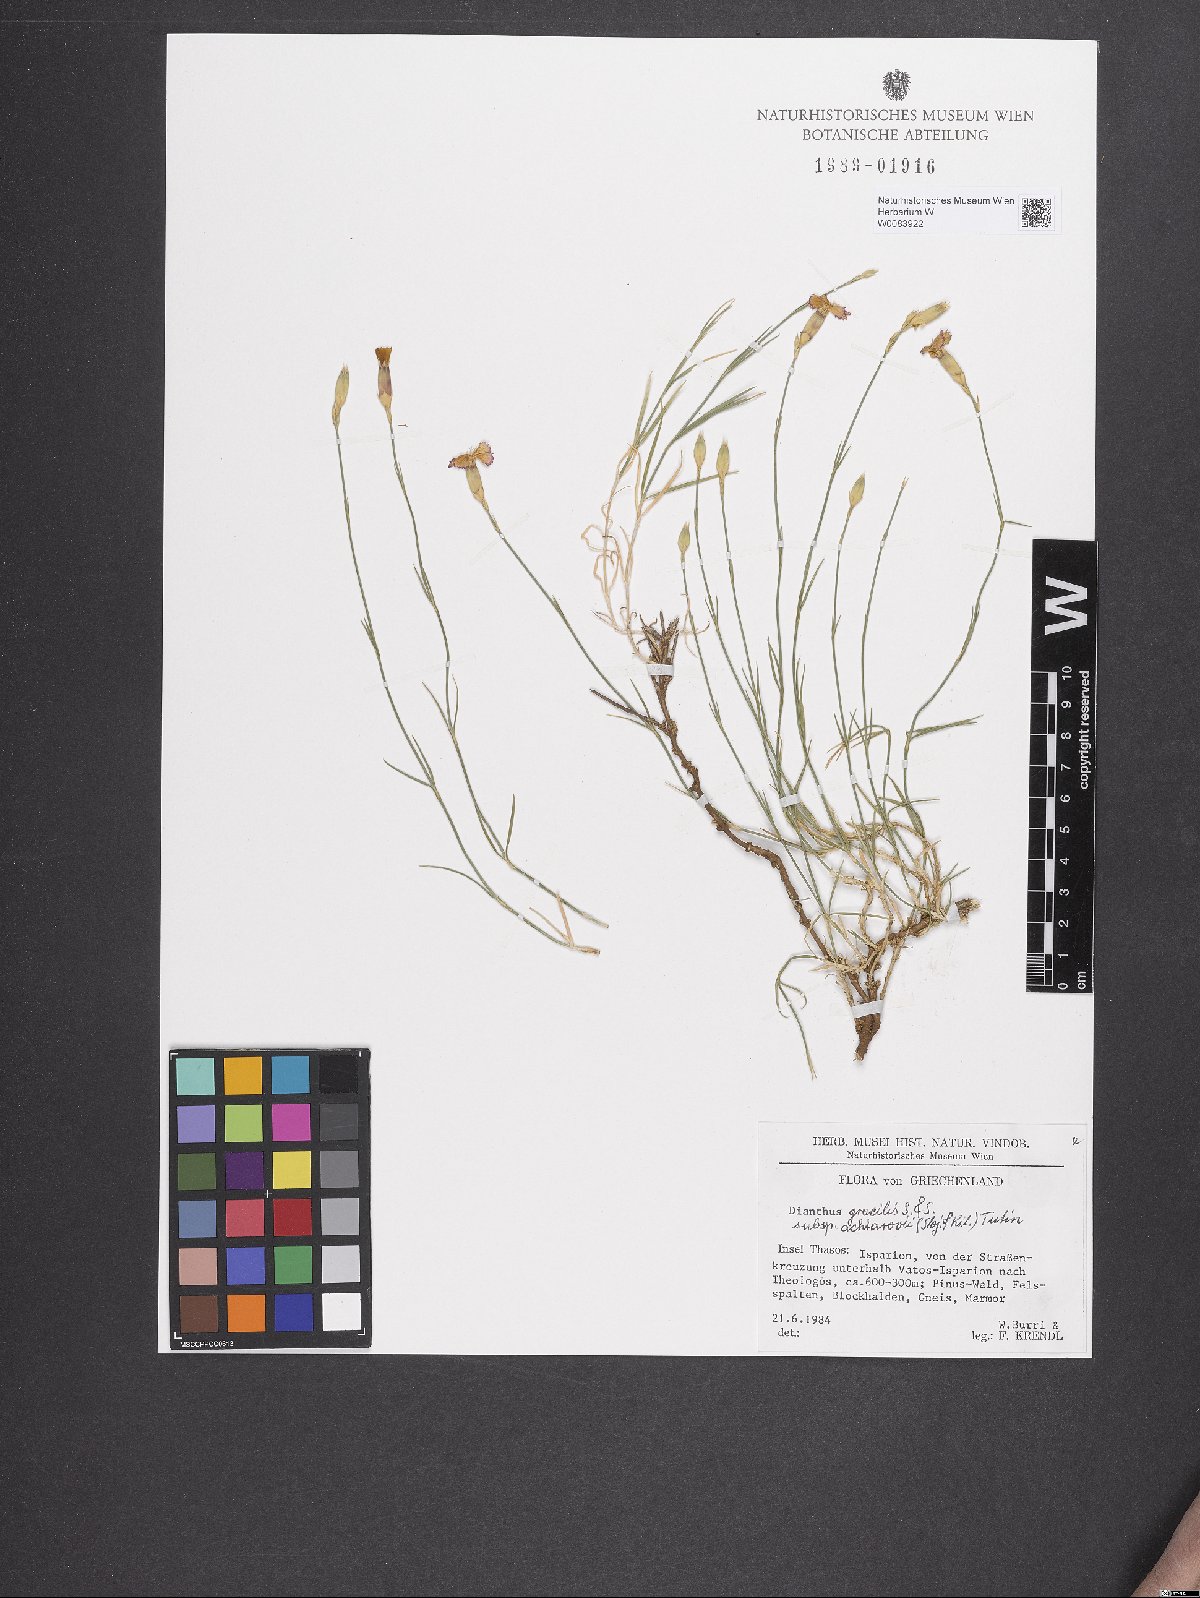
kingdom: Plantae
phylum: Tracheophyta
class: Magnoliopsida
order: Caryophyllales
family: Caryophyllaceae
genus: Dianthus
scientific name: Dianthus gracilis
